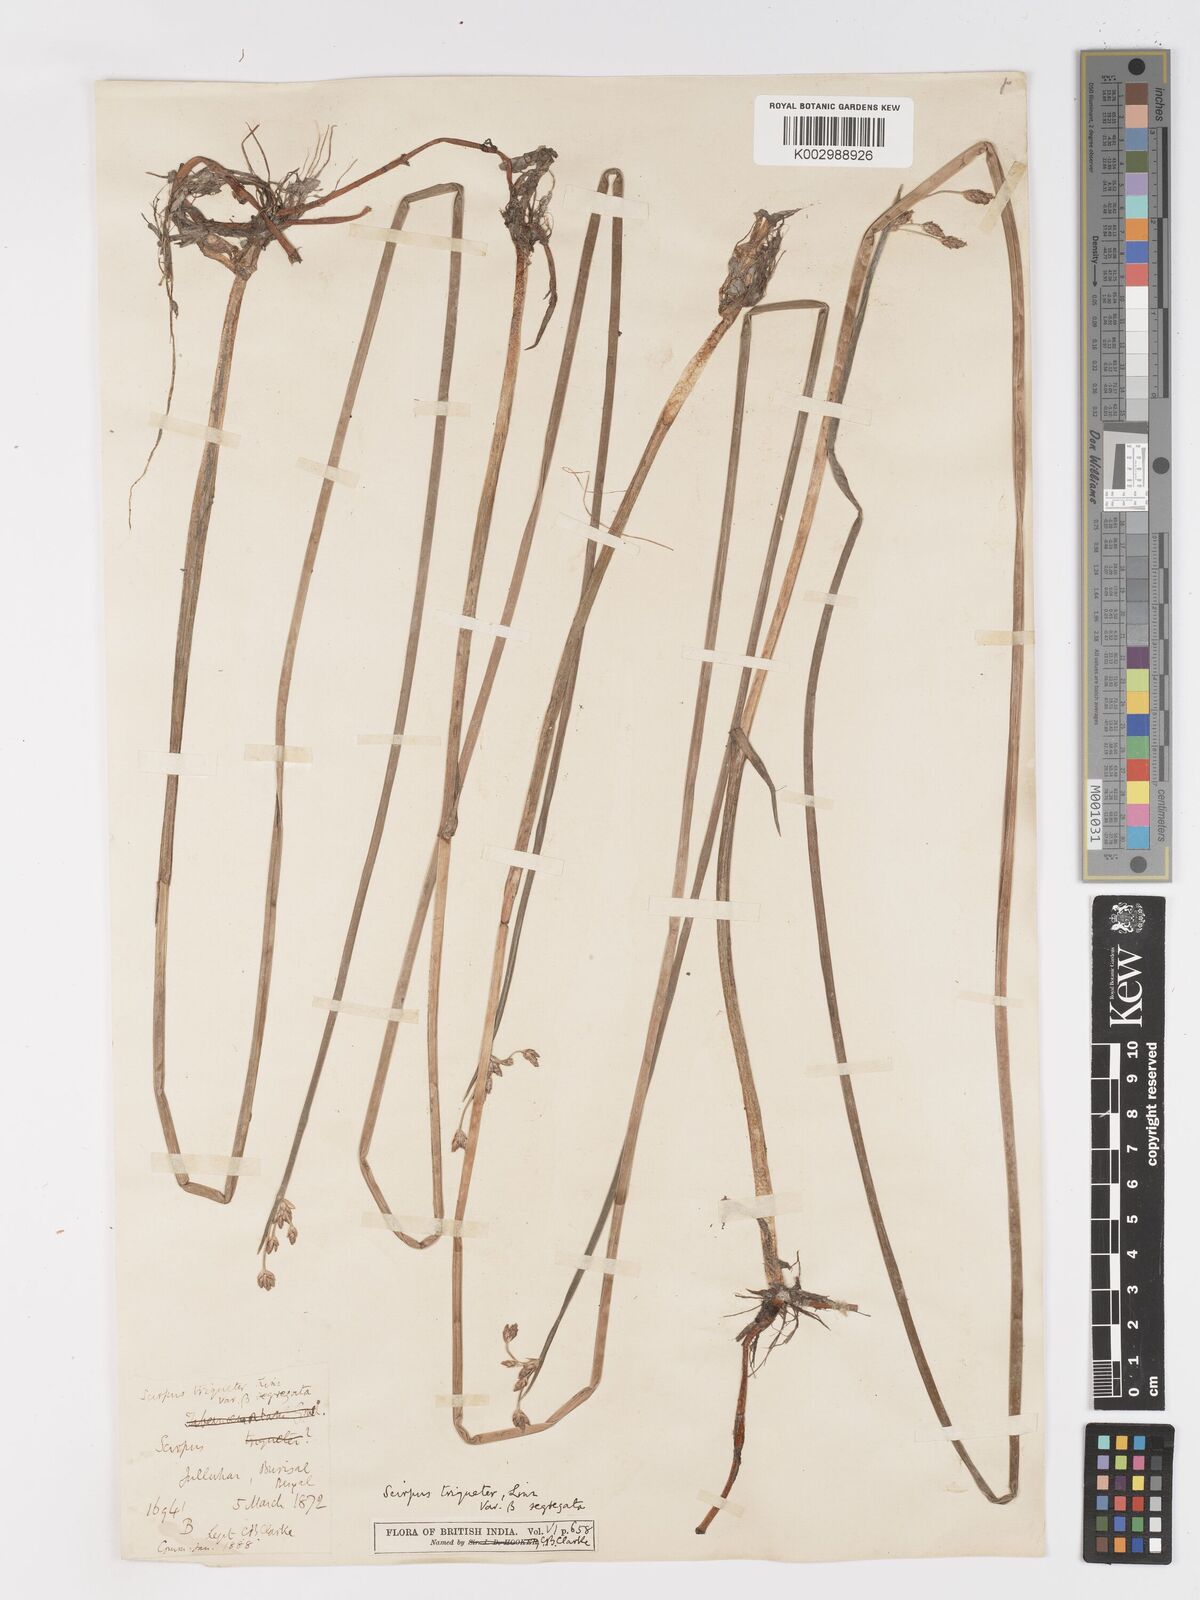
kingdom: Plantae
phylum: Tracheophyta
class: Liliopsida
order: Poales
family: Cyperaceae
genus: Schoenoplectus
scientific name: Schoenoplectus triqueter
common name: Triangular club-rush
